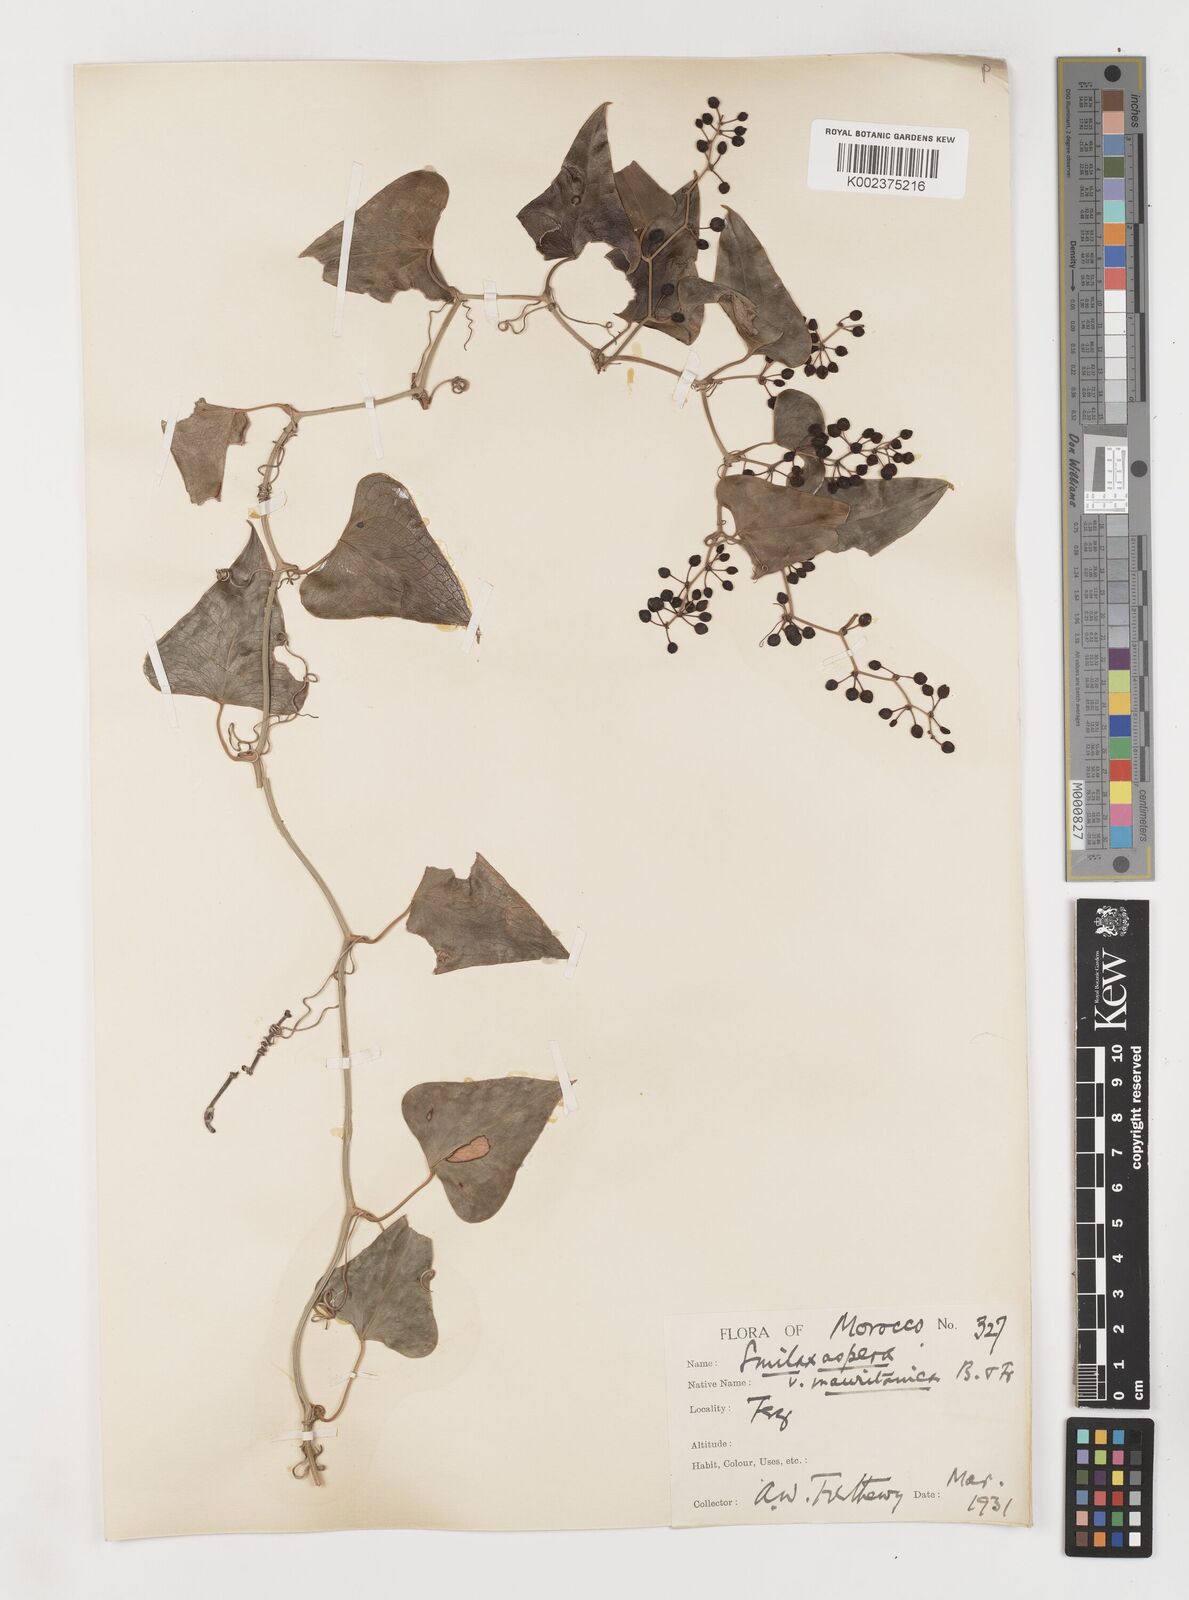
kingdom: Plantae
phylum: Tracheophyta
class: Liliopsida
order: Liliales
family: Smilacaceae
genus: Smilax
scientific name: Smilax aspera
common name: Common smilax
